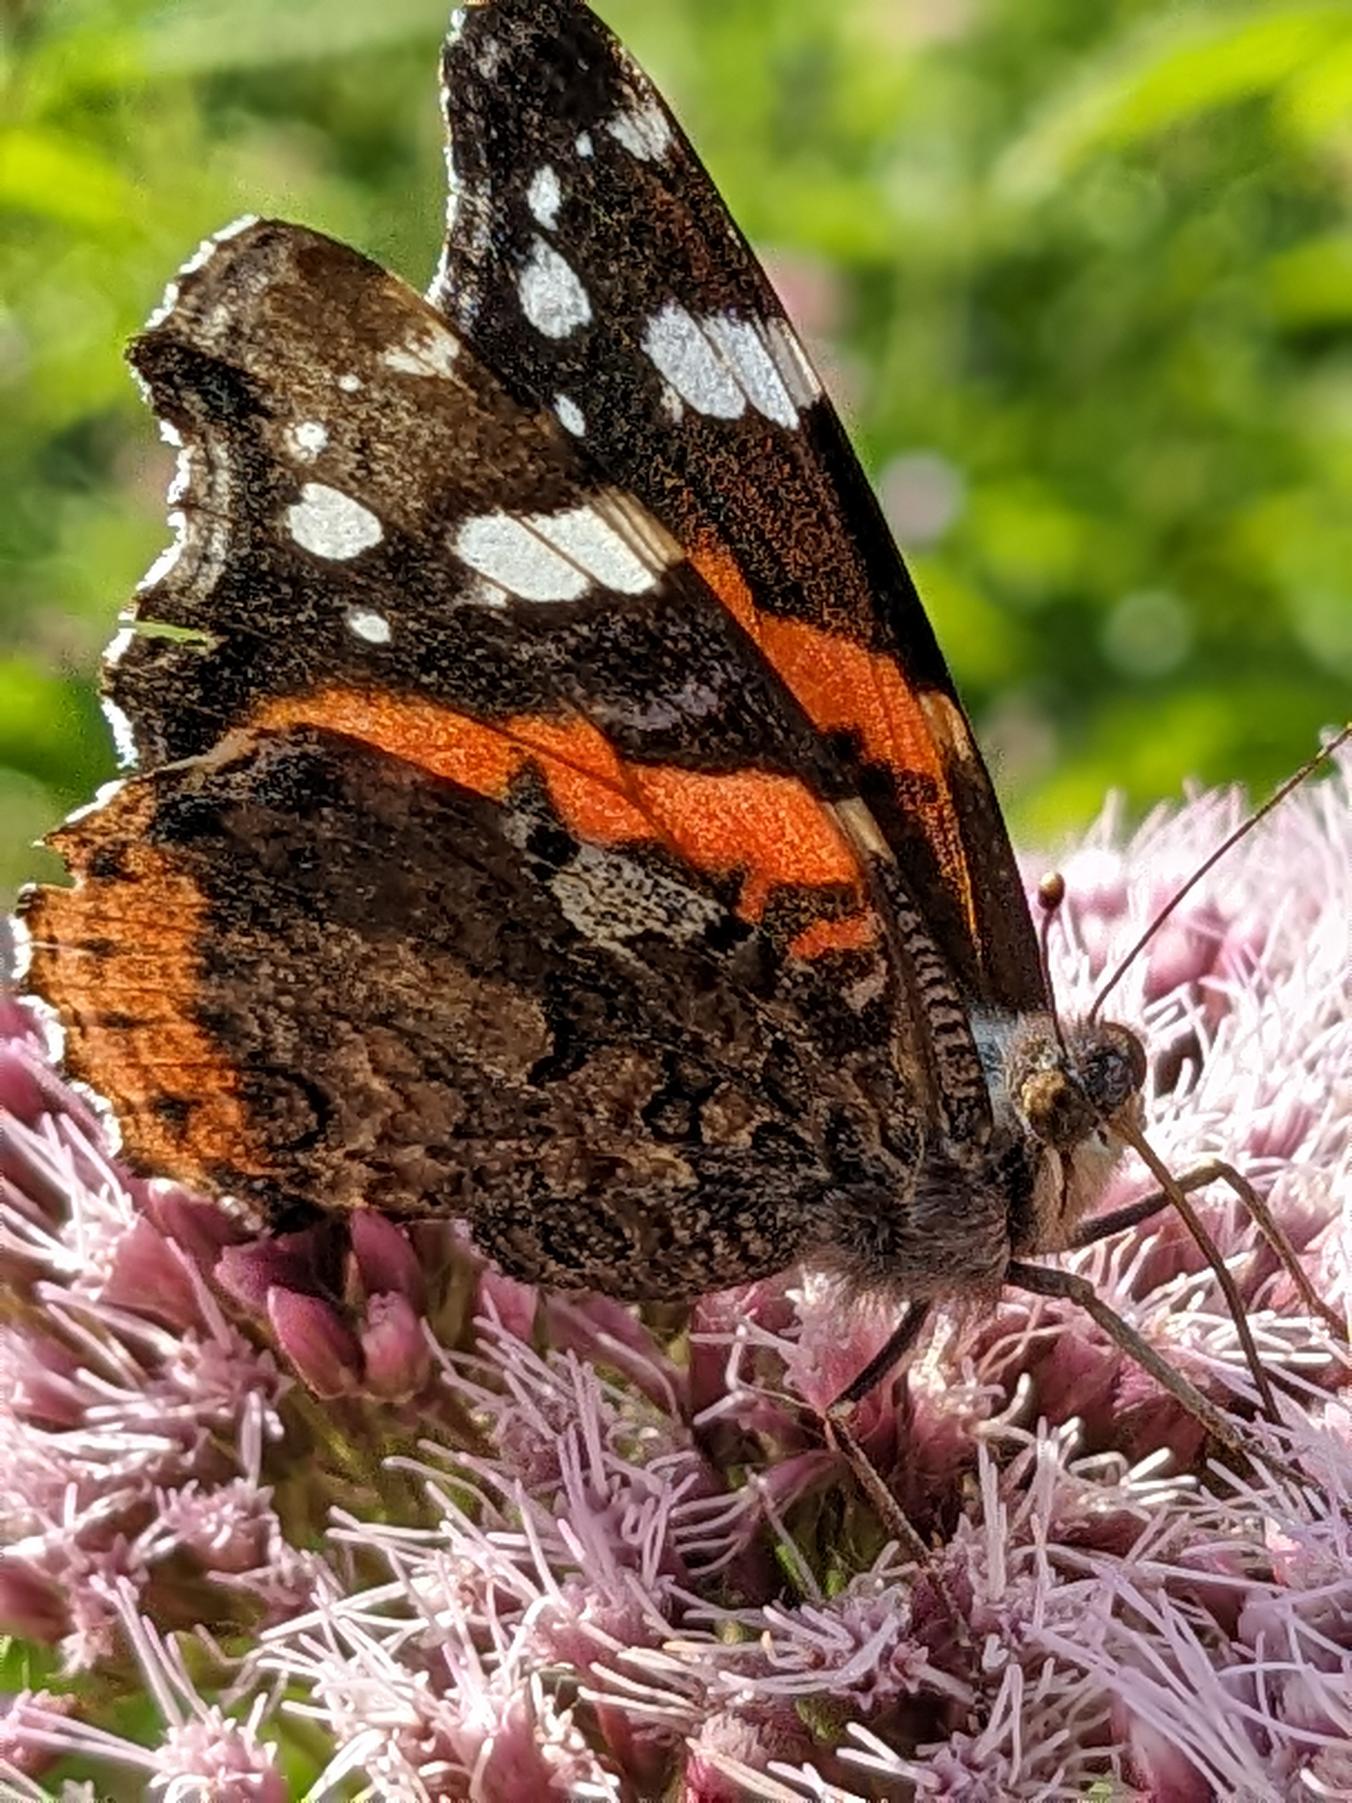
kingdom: Animalia
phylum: Arthropoda
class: Insecta
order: Lepidoptera
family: Nymphalidae
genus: Vanessa
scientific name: Vanessa atalanta
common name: Admiral
